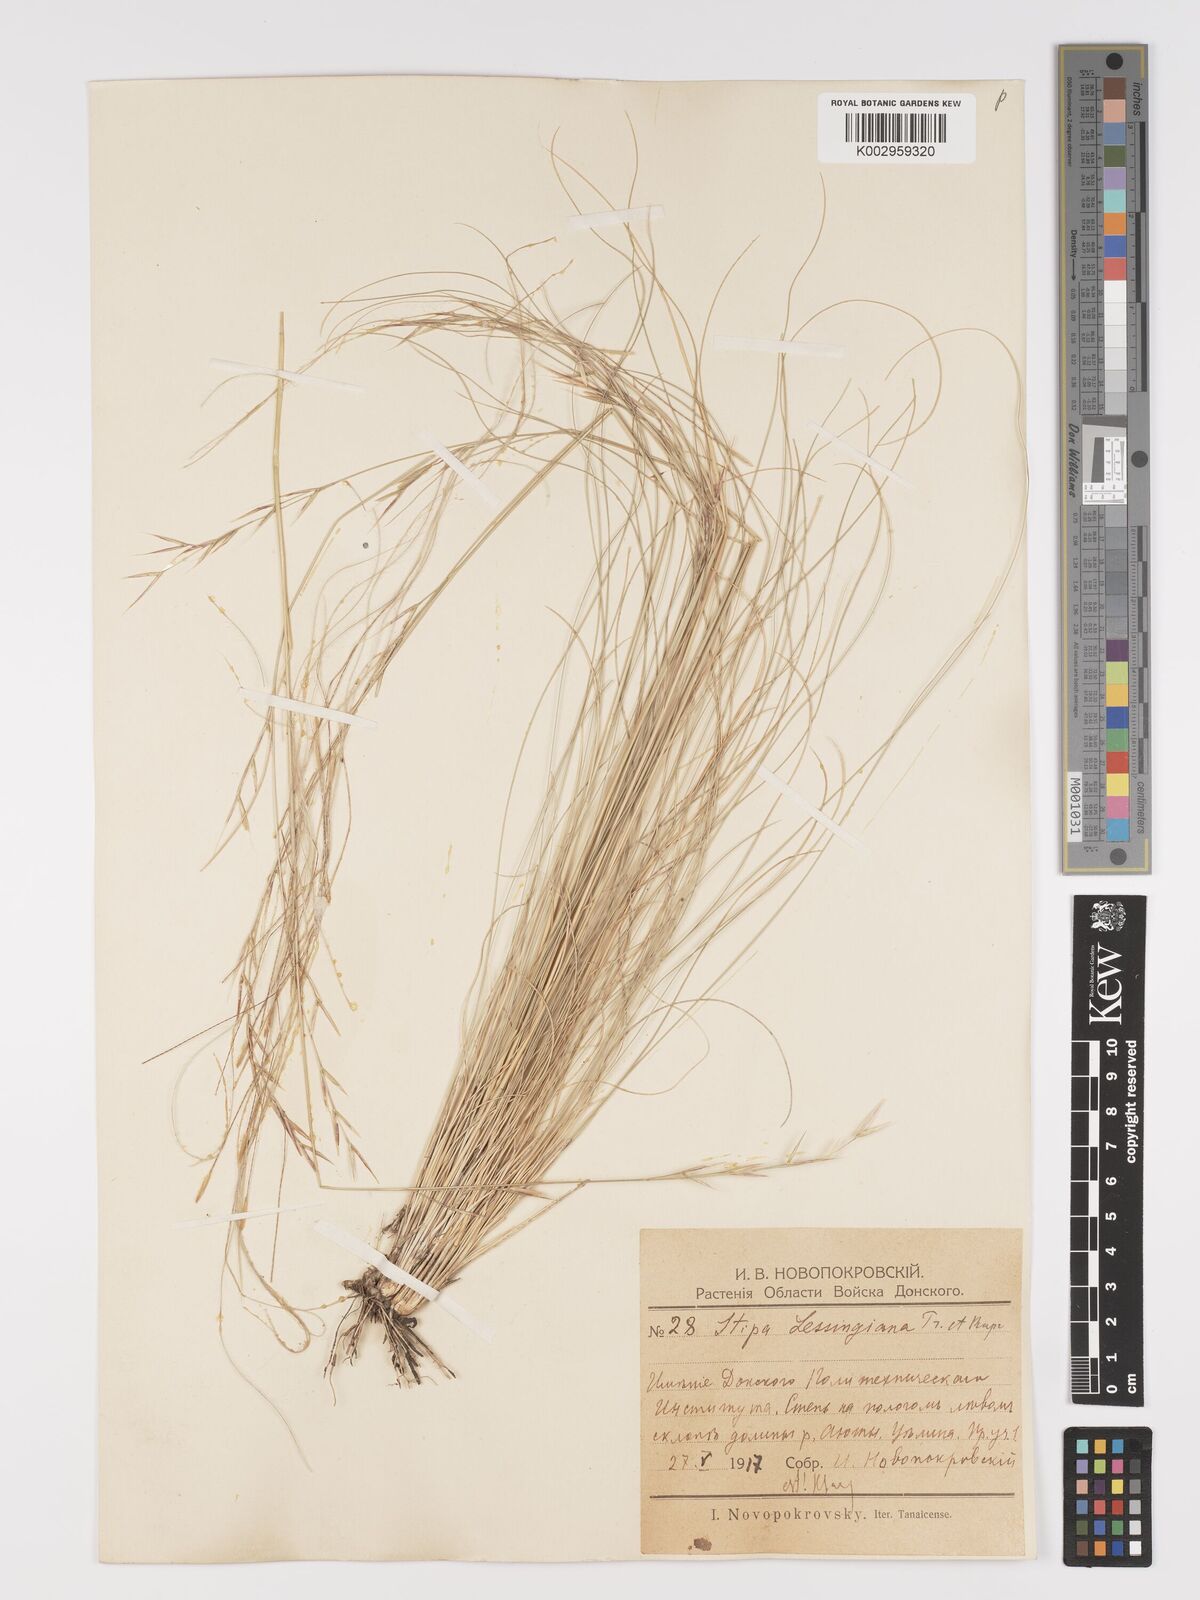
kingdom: Plantae
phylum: Tracheophyta
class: Liliopsida
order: Poales
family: Poaceae
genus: Stipa
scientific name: Stipa lessingiana
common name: Needle grass
